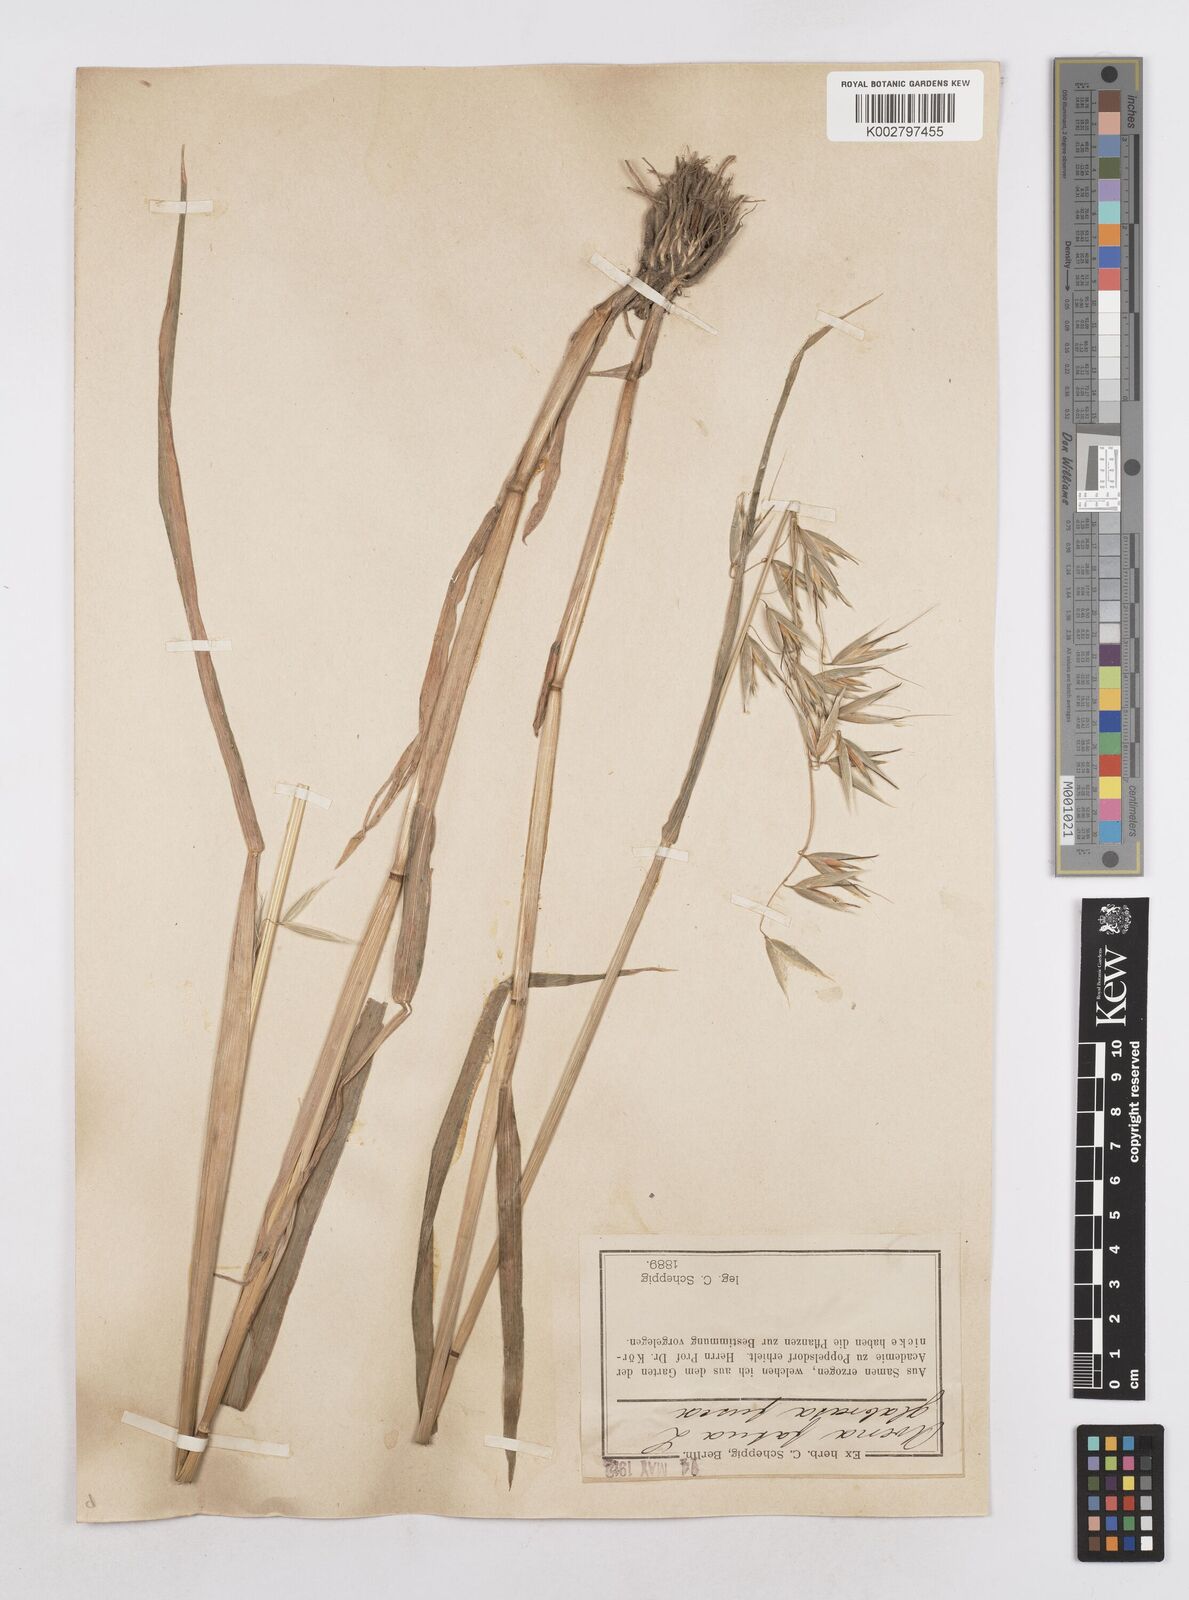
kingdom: Plantae
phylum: Tracheophyta
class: Liliopsida
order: Poales
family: Poaceae
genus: Avena
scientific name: Avena fatua
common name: Wild oat
